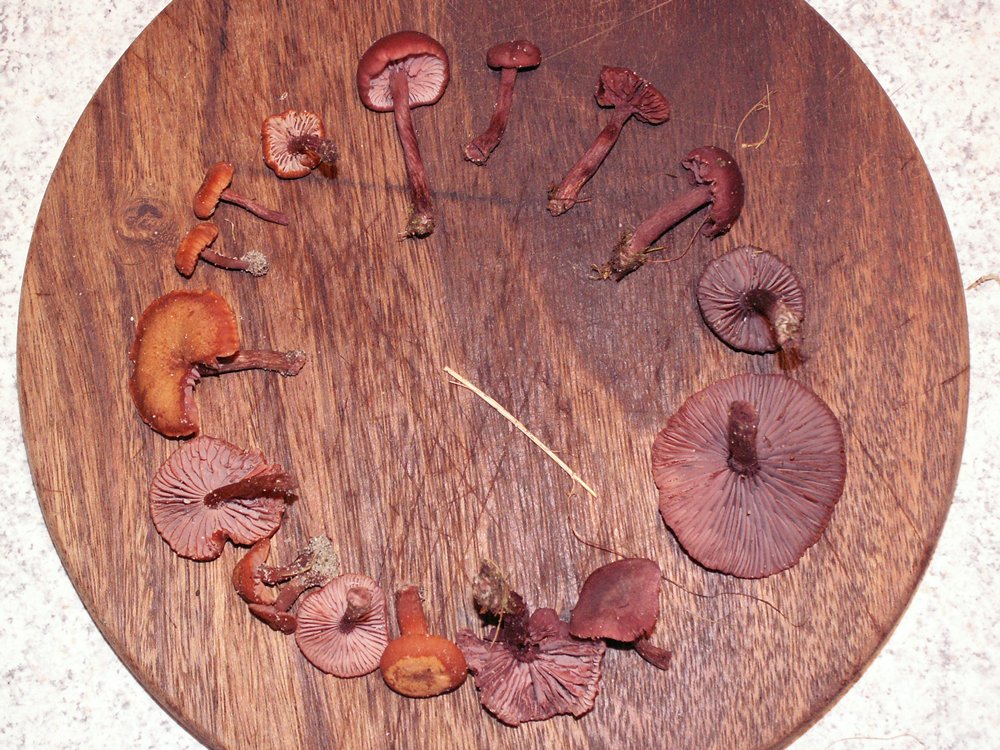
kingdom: Fungi
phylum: Basidiomycota
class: Agaricomycetes
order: Agaricales
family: Hydnangiaceae
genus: Laccaria
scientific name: Laccaria laccata
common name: rød ametysthat
